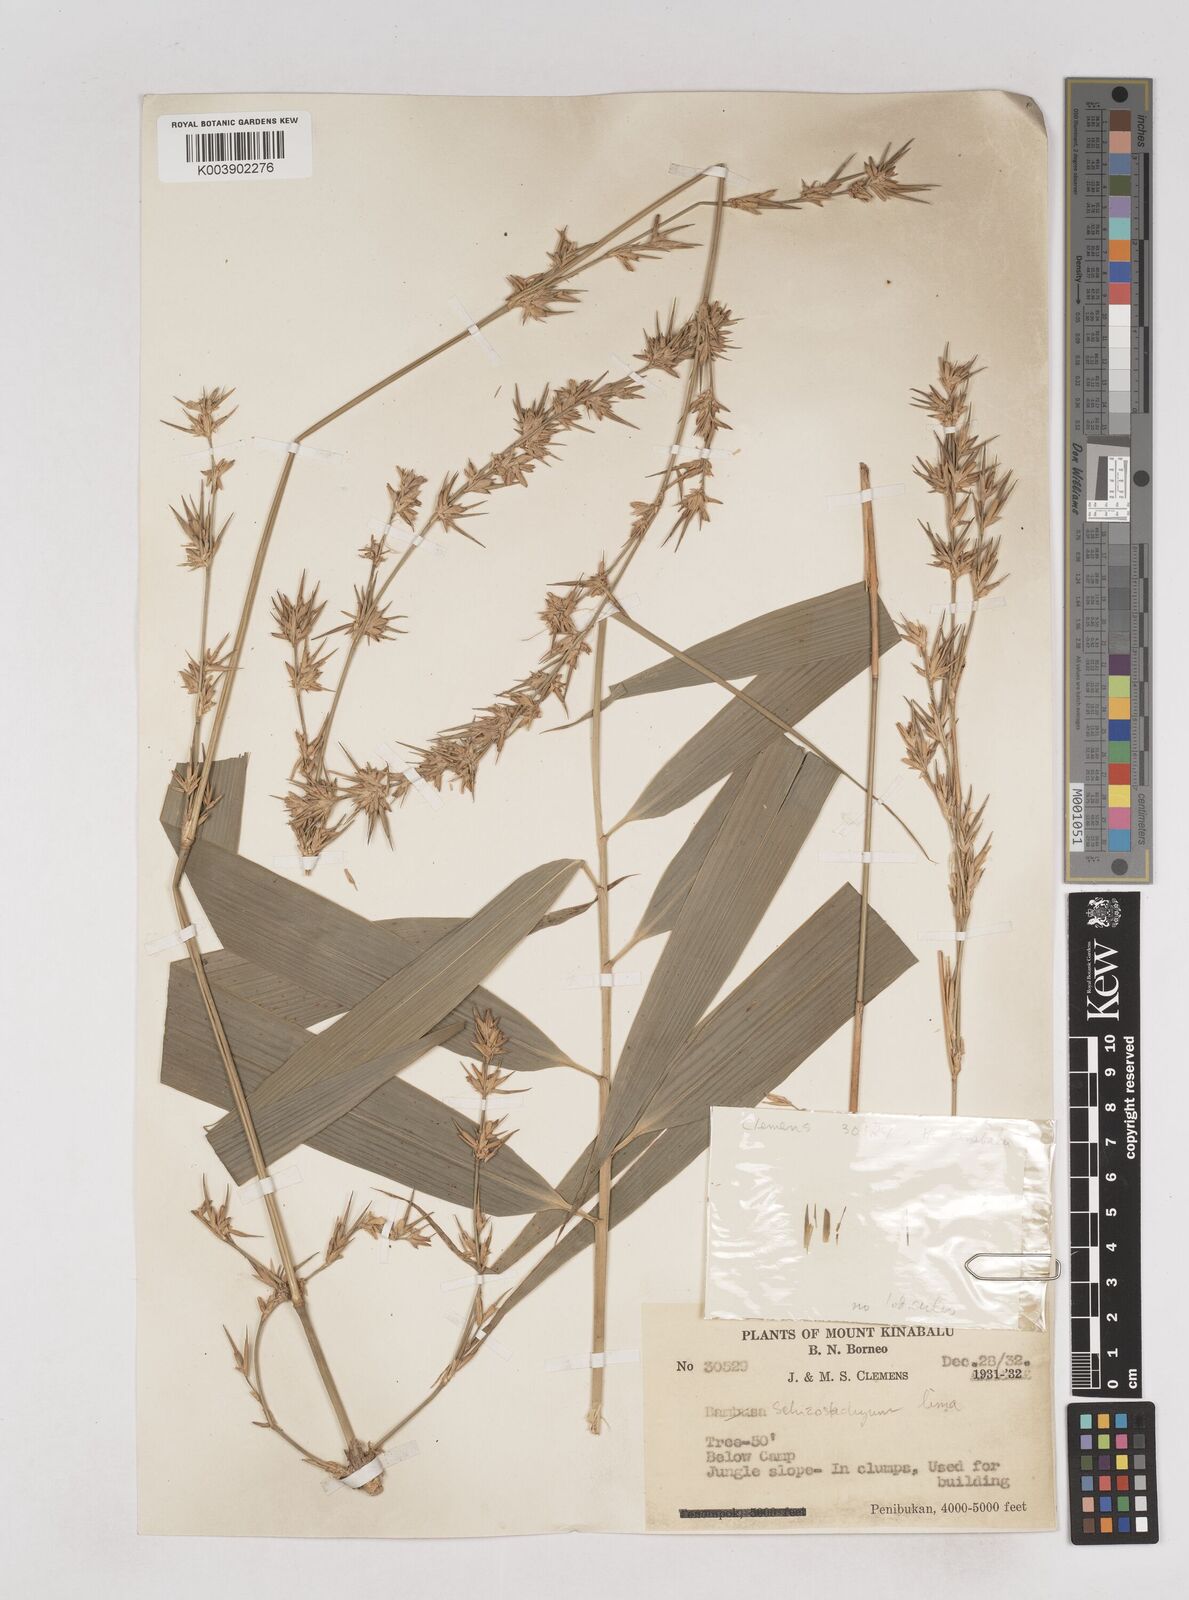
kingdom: Plantae
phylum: Tracheophyta
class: Liliopsida
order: Poales
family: Poaceae
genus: Schizostachyum
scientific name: Schizostachyum lima
